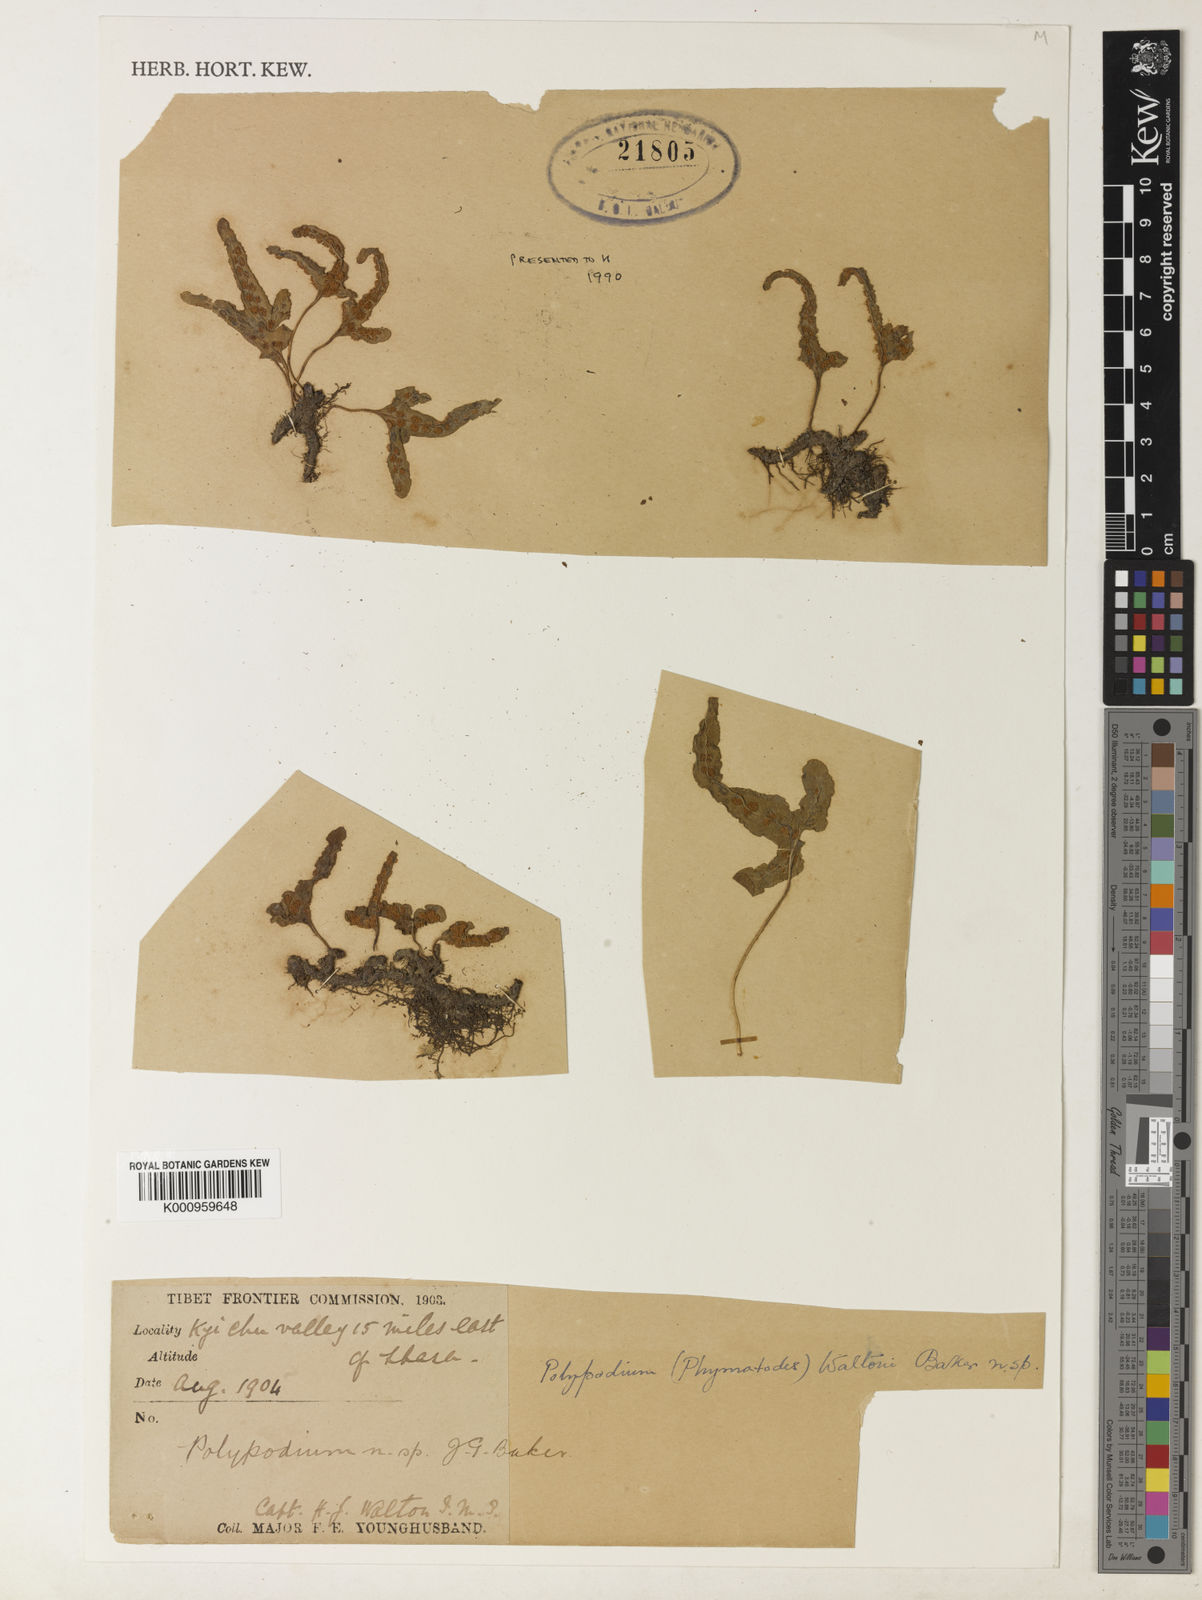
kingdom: Plantae
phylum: Tracheophyta
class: Polypodiopsida
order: Polypodiales
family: Polypodiaceae
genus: Lepisorus
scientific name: Lepisorus waltonii
